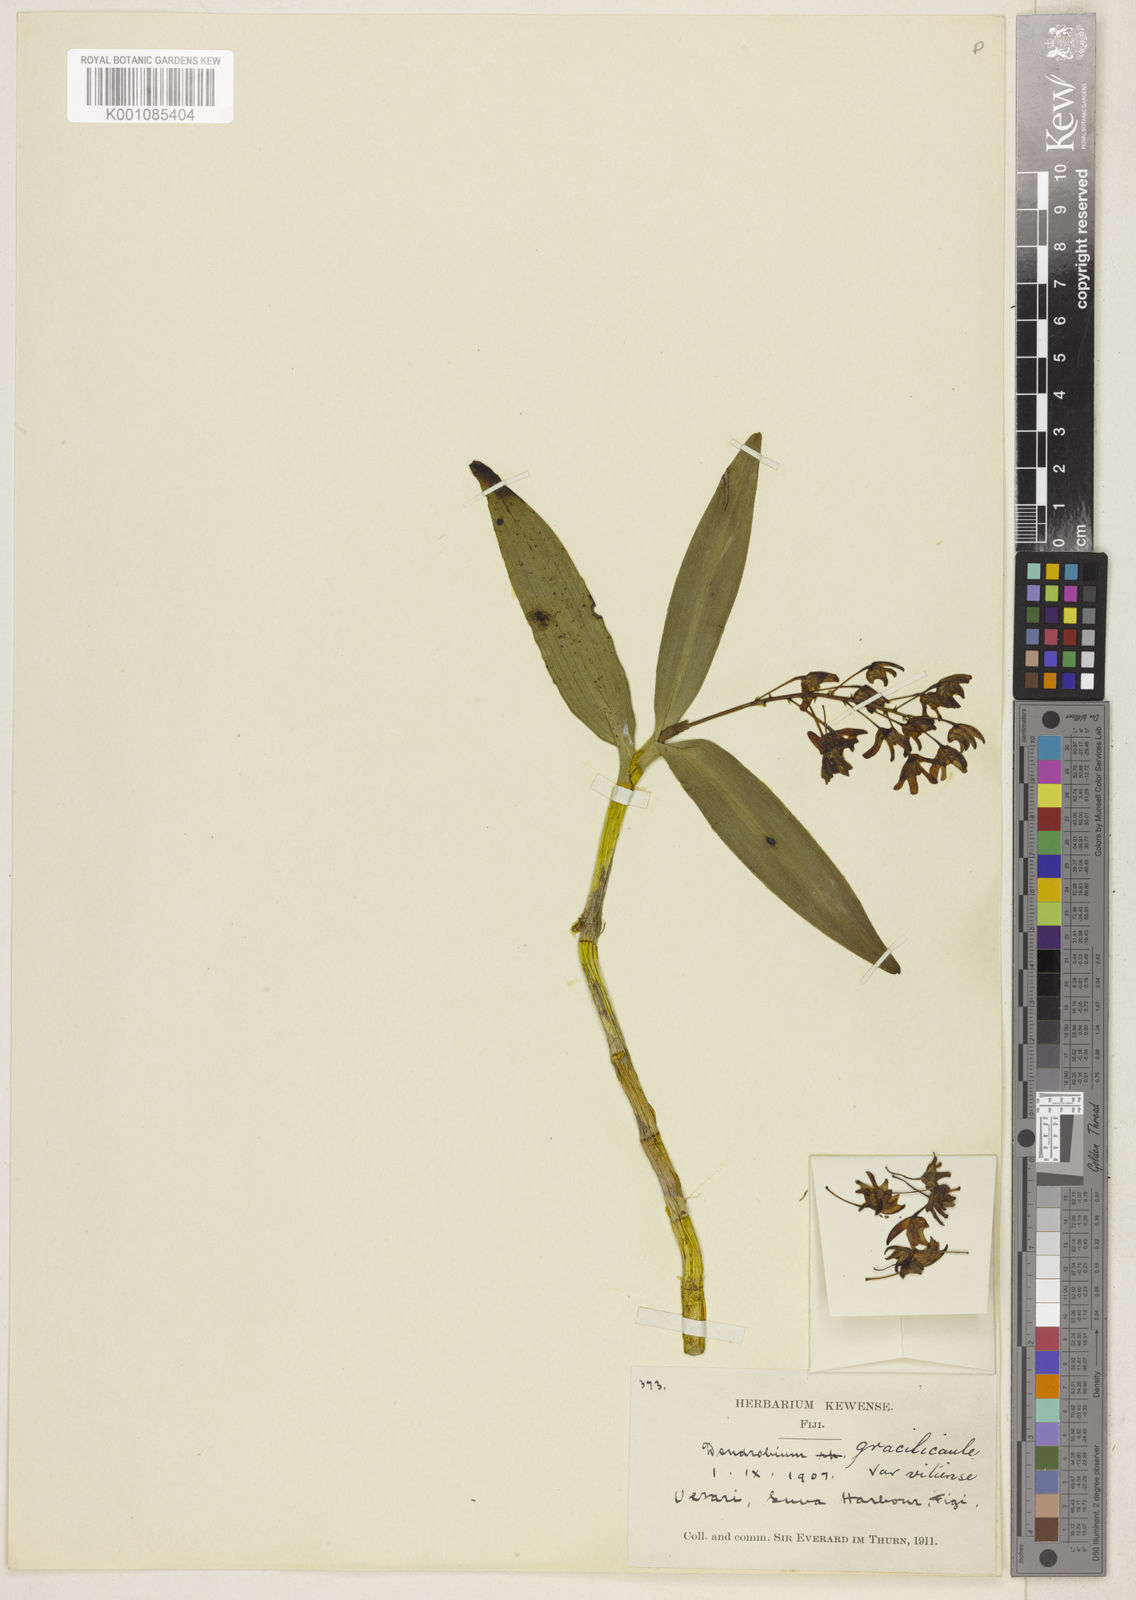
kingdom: Plantae
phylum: Tracheophyta
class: Liliopsida
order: Asparagales
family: Orchidaceae
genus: Dendrobium
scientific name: Dendrobium macropus
